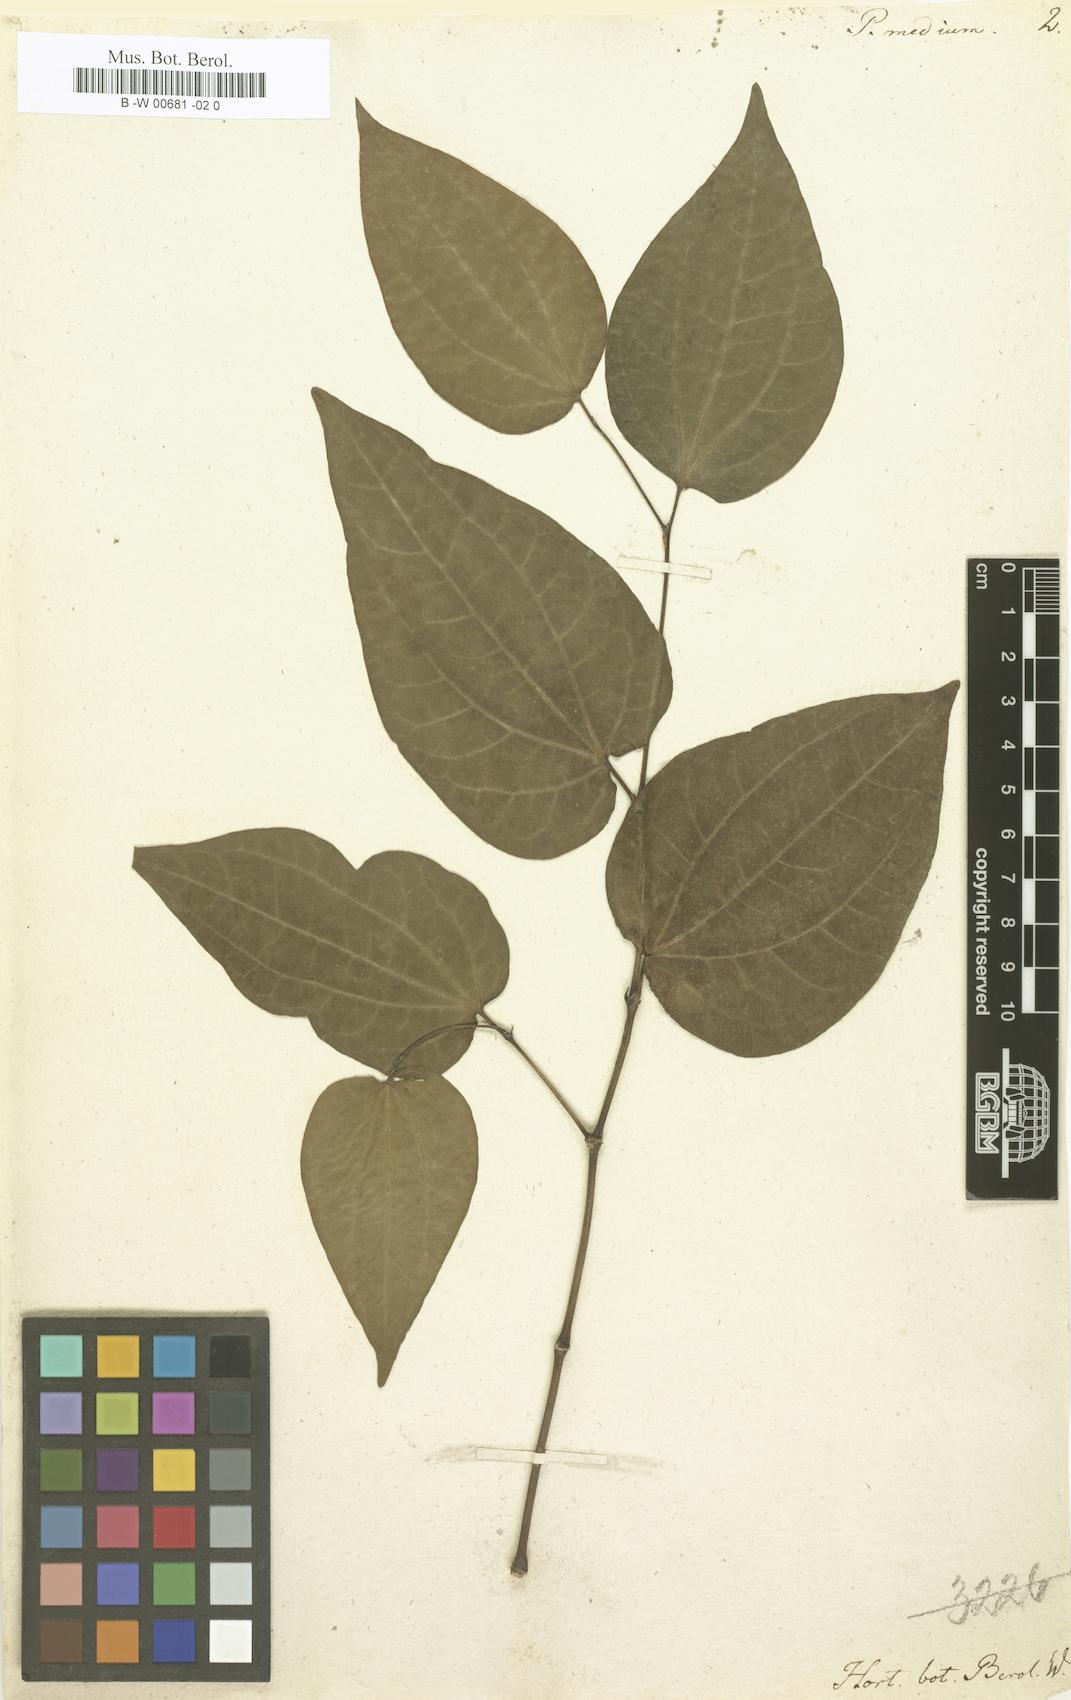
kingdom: Plantae
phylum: Tracheophyta
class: Magnoliopsida
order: Piperales
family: Piperaceae
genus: Piper
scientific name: Piper amalago
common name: Pepper-elder
